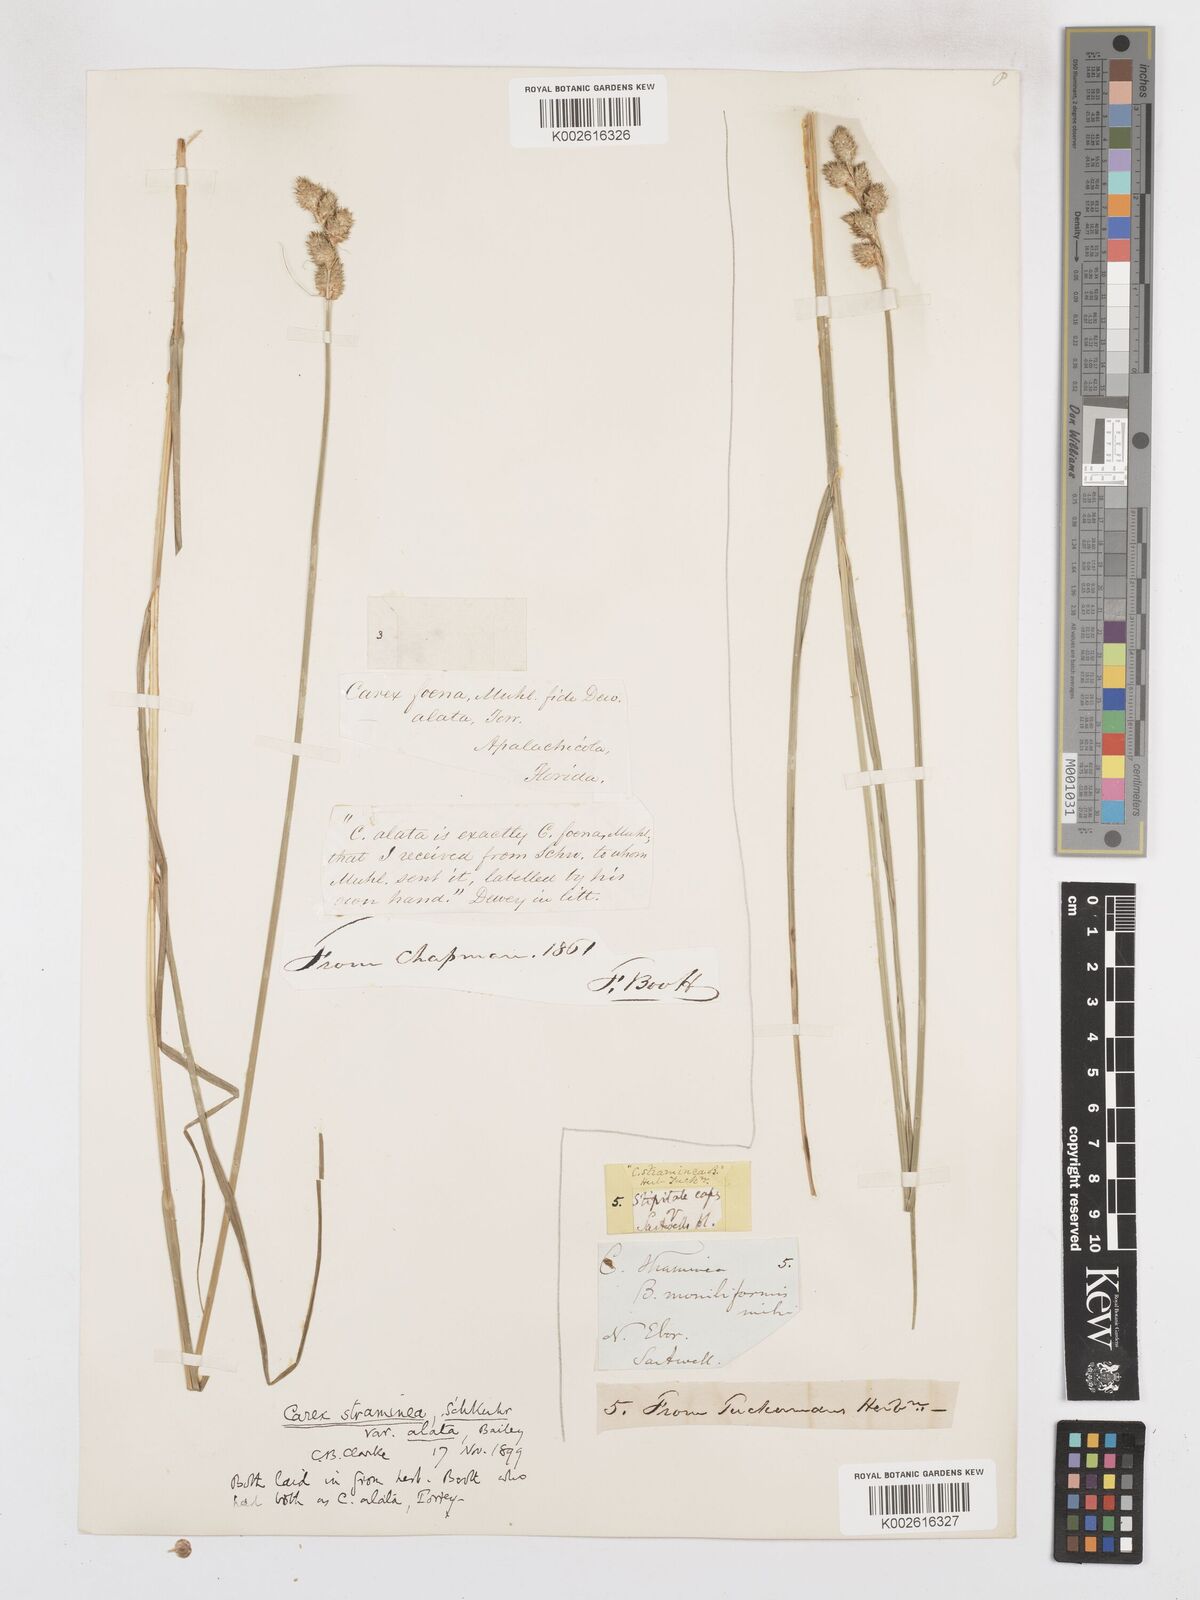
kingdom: Plantae
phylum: Tracheophyta
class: Liliopsida
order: Poales
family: Cyperaceae
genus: Carex
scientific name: Carex alata
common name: Broad-winged sedge
